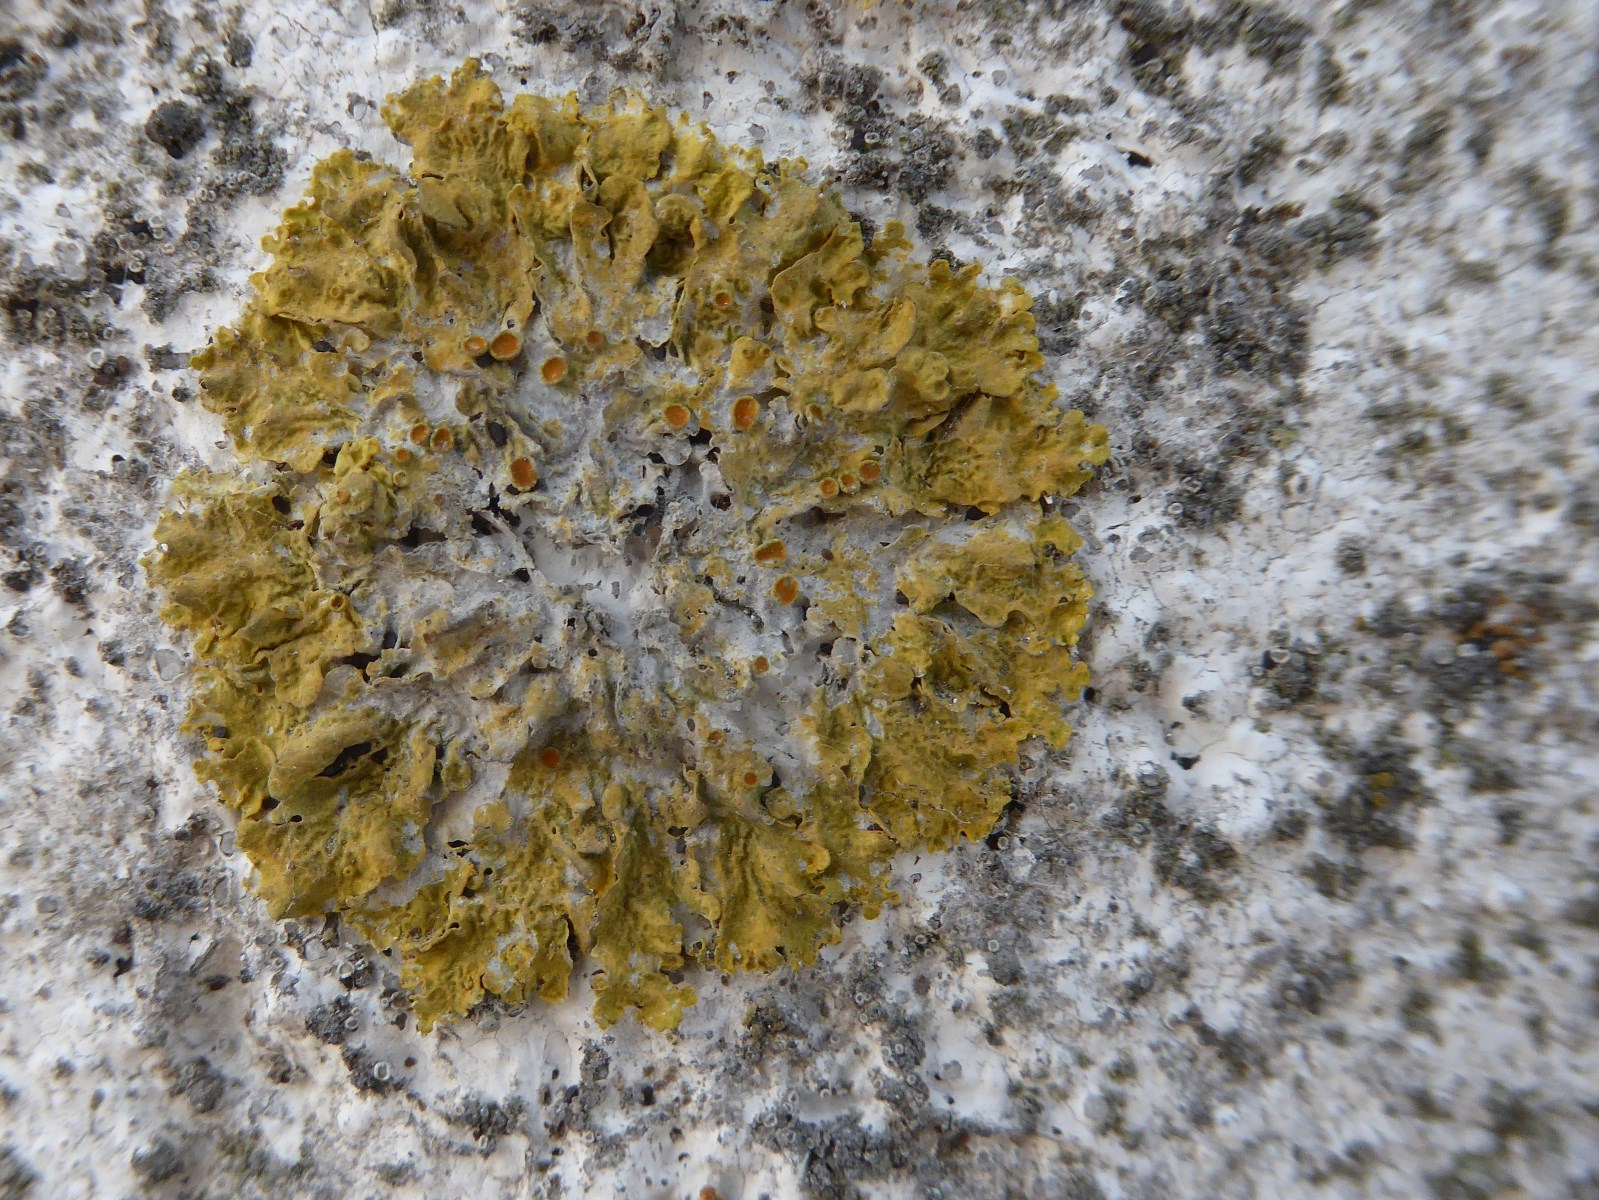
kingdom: Fungi
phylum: Ascomycota
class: Lecanoromycetes
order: Teloschistales
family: Teloschistaceae
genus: Xanthoria
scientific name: Xanthoria parietina
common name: almindelig væggelav
